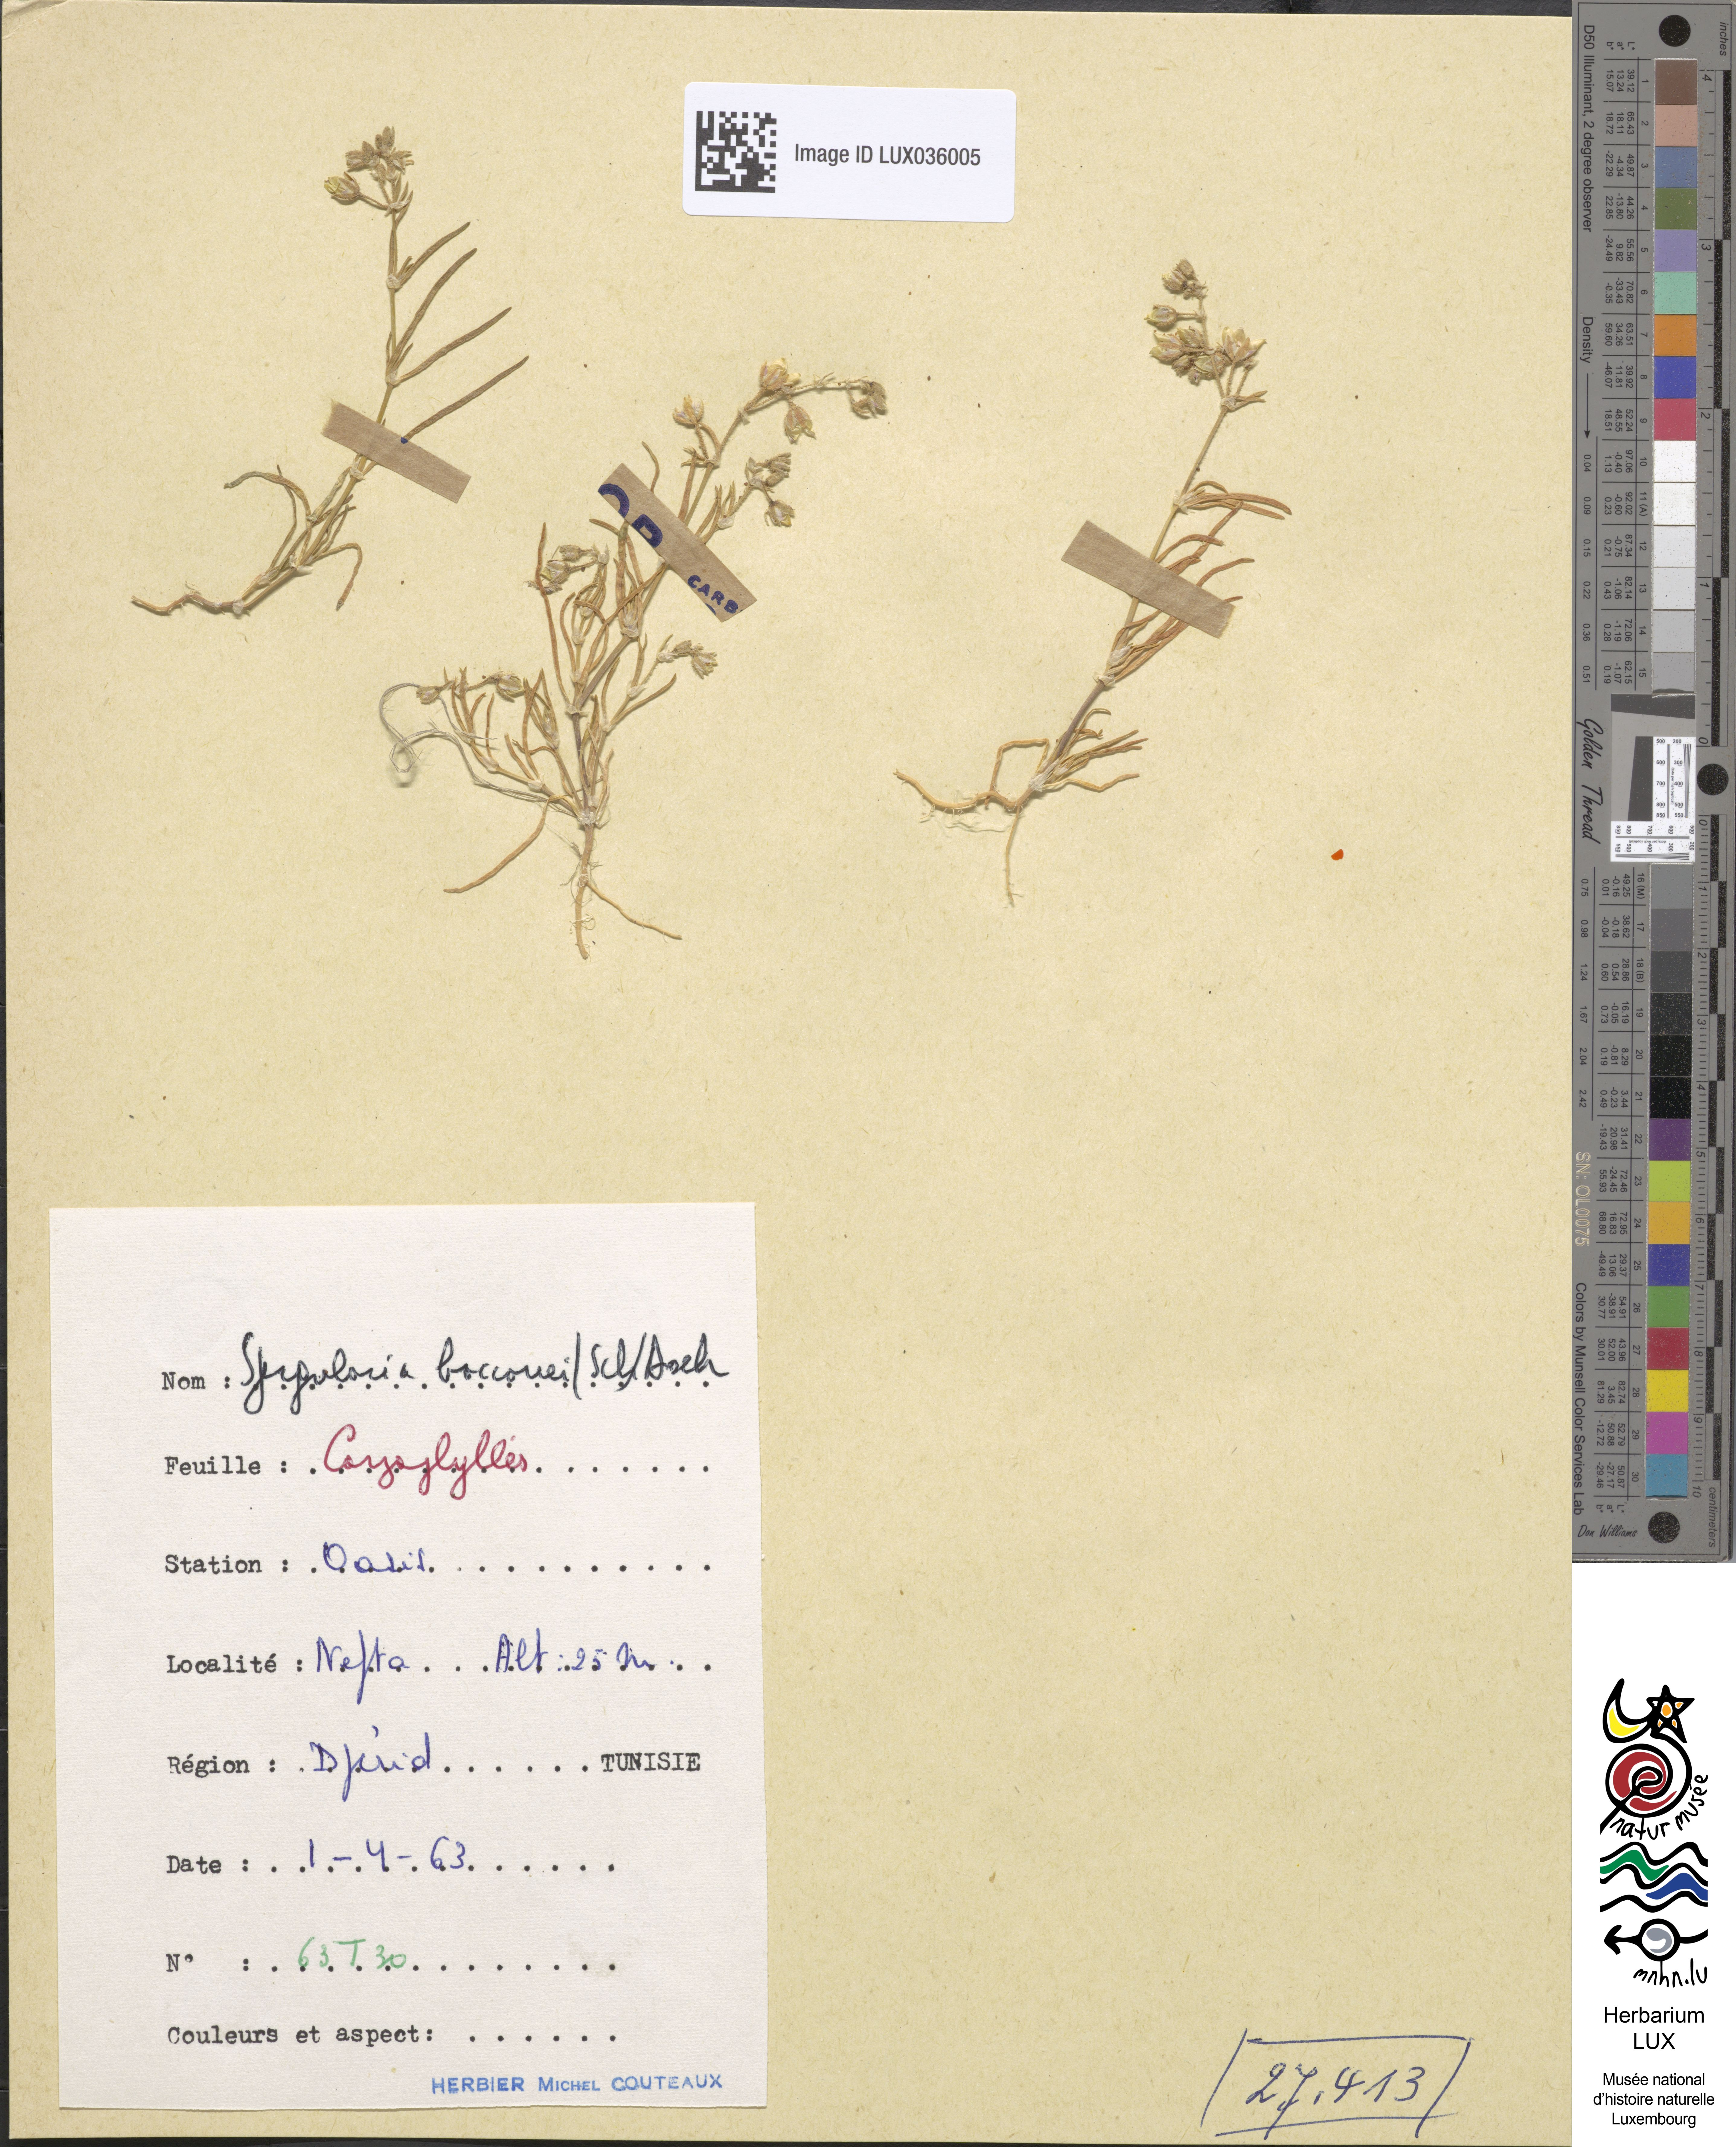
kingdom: Plantae
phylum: Tracheophyta
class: Magnoliopsida
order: Caryophyllales
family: Caryophyllaceae
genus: Spergularia
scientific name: Spergularia bocconei
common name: Greek sea-spurrey
